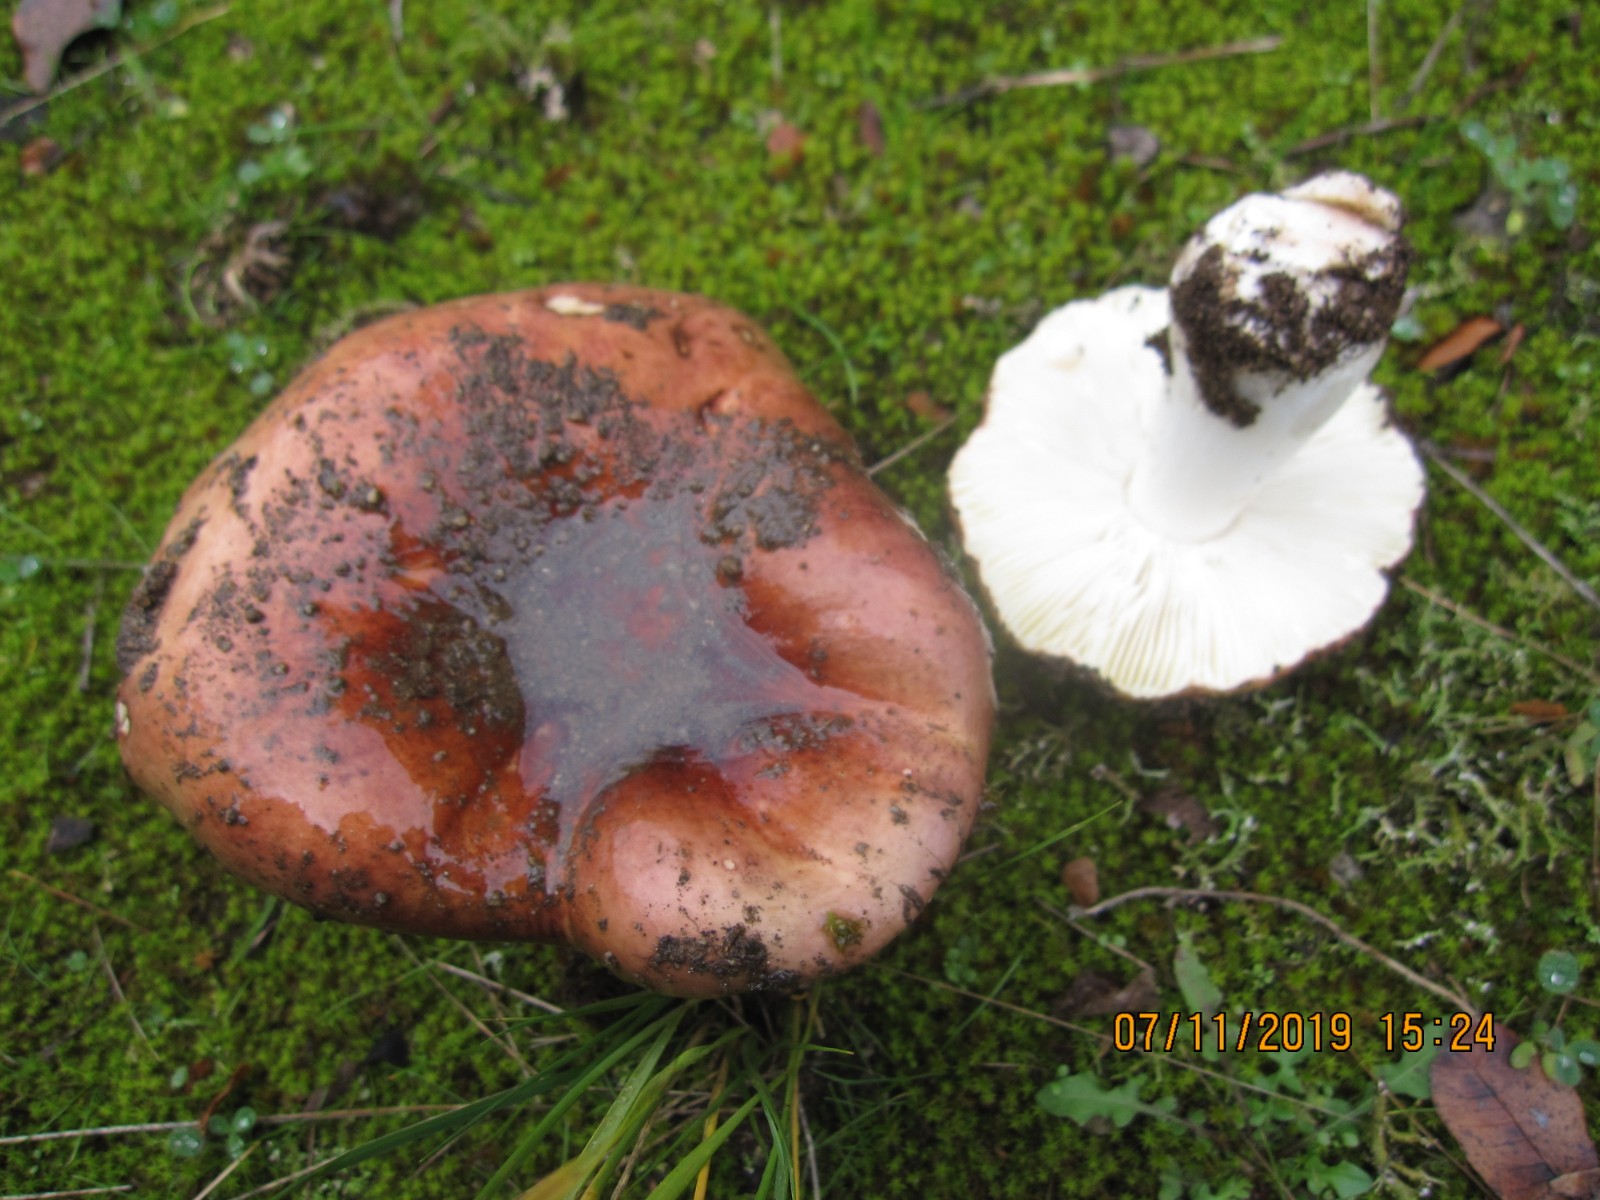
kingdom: Fungi
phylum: Basidiomycota
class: Agaricomycetes
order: Russulales
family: Russulaceae
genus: Russula
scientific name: Russula graveolens
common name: bugtet skørhat
